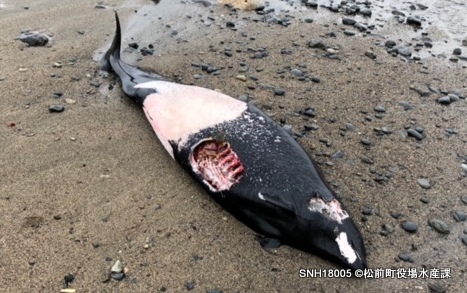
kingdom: Animalia
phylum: Chordata
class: Mammalia
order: Cetacea
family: Phocoenidae
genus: Phocoenoides
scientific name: Phocoenoides dalli
